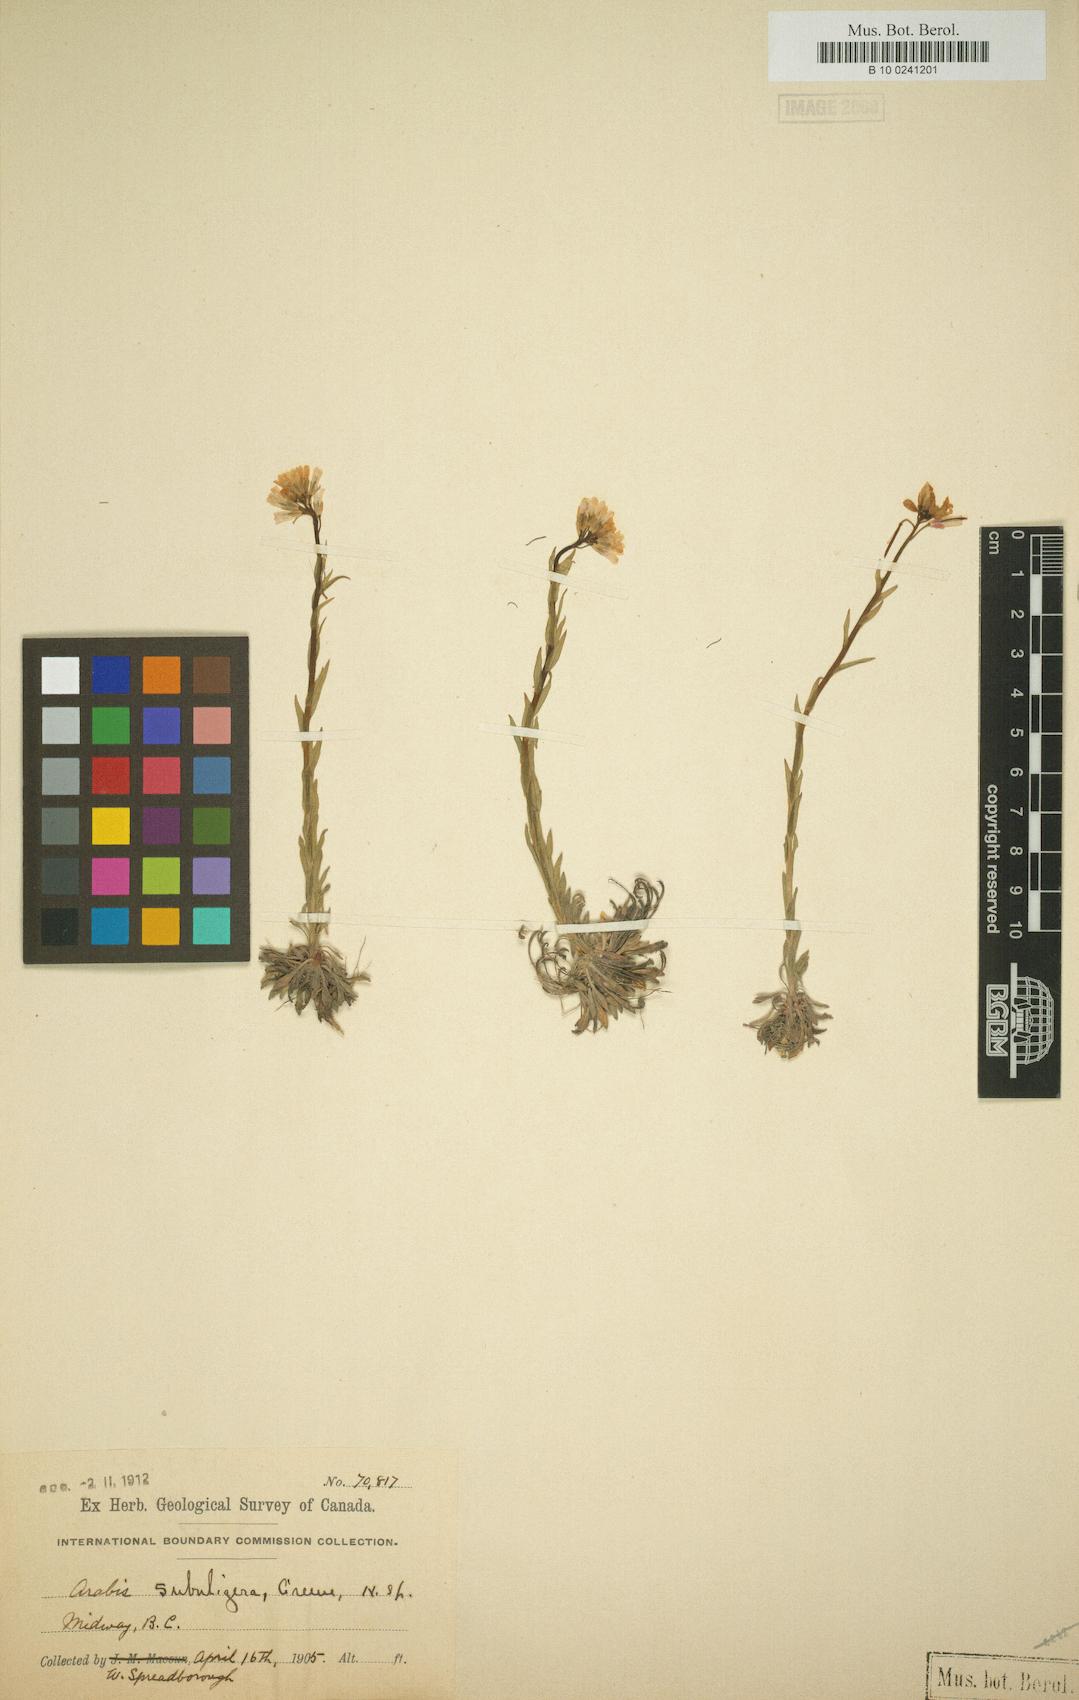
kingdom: Plantae
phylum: Tracheophyta
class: Magnoliopsida
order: Brassicales
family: Brassicaceae
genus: Arabis
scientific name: Arabis
